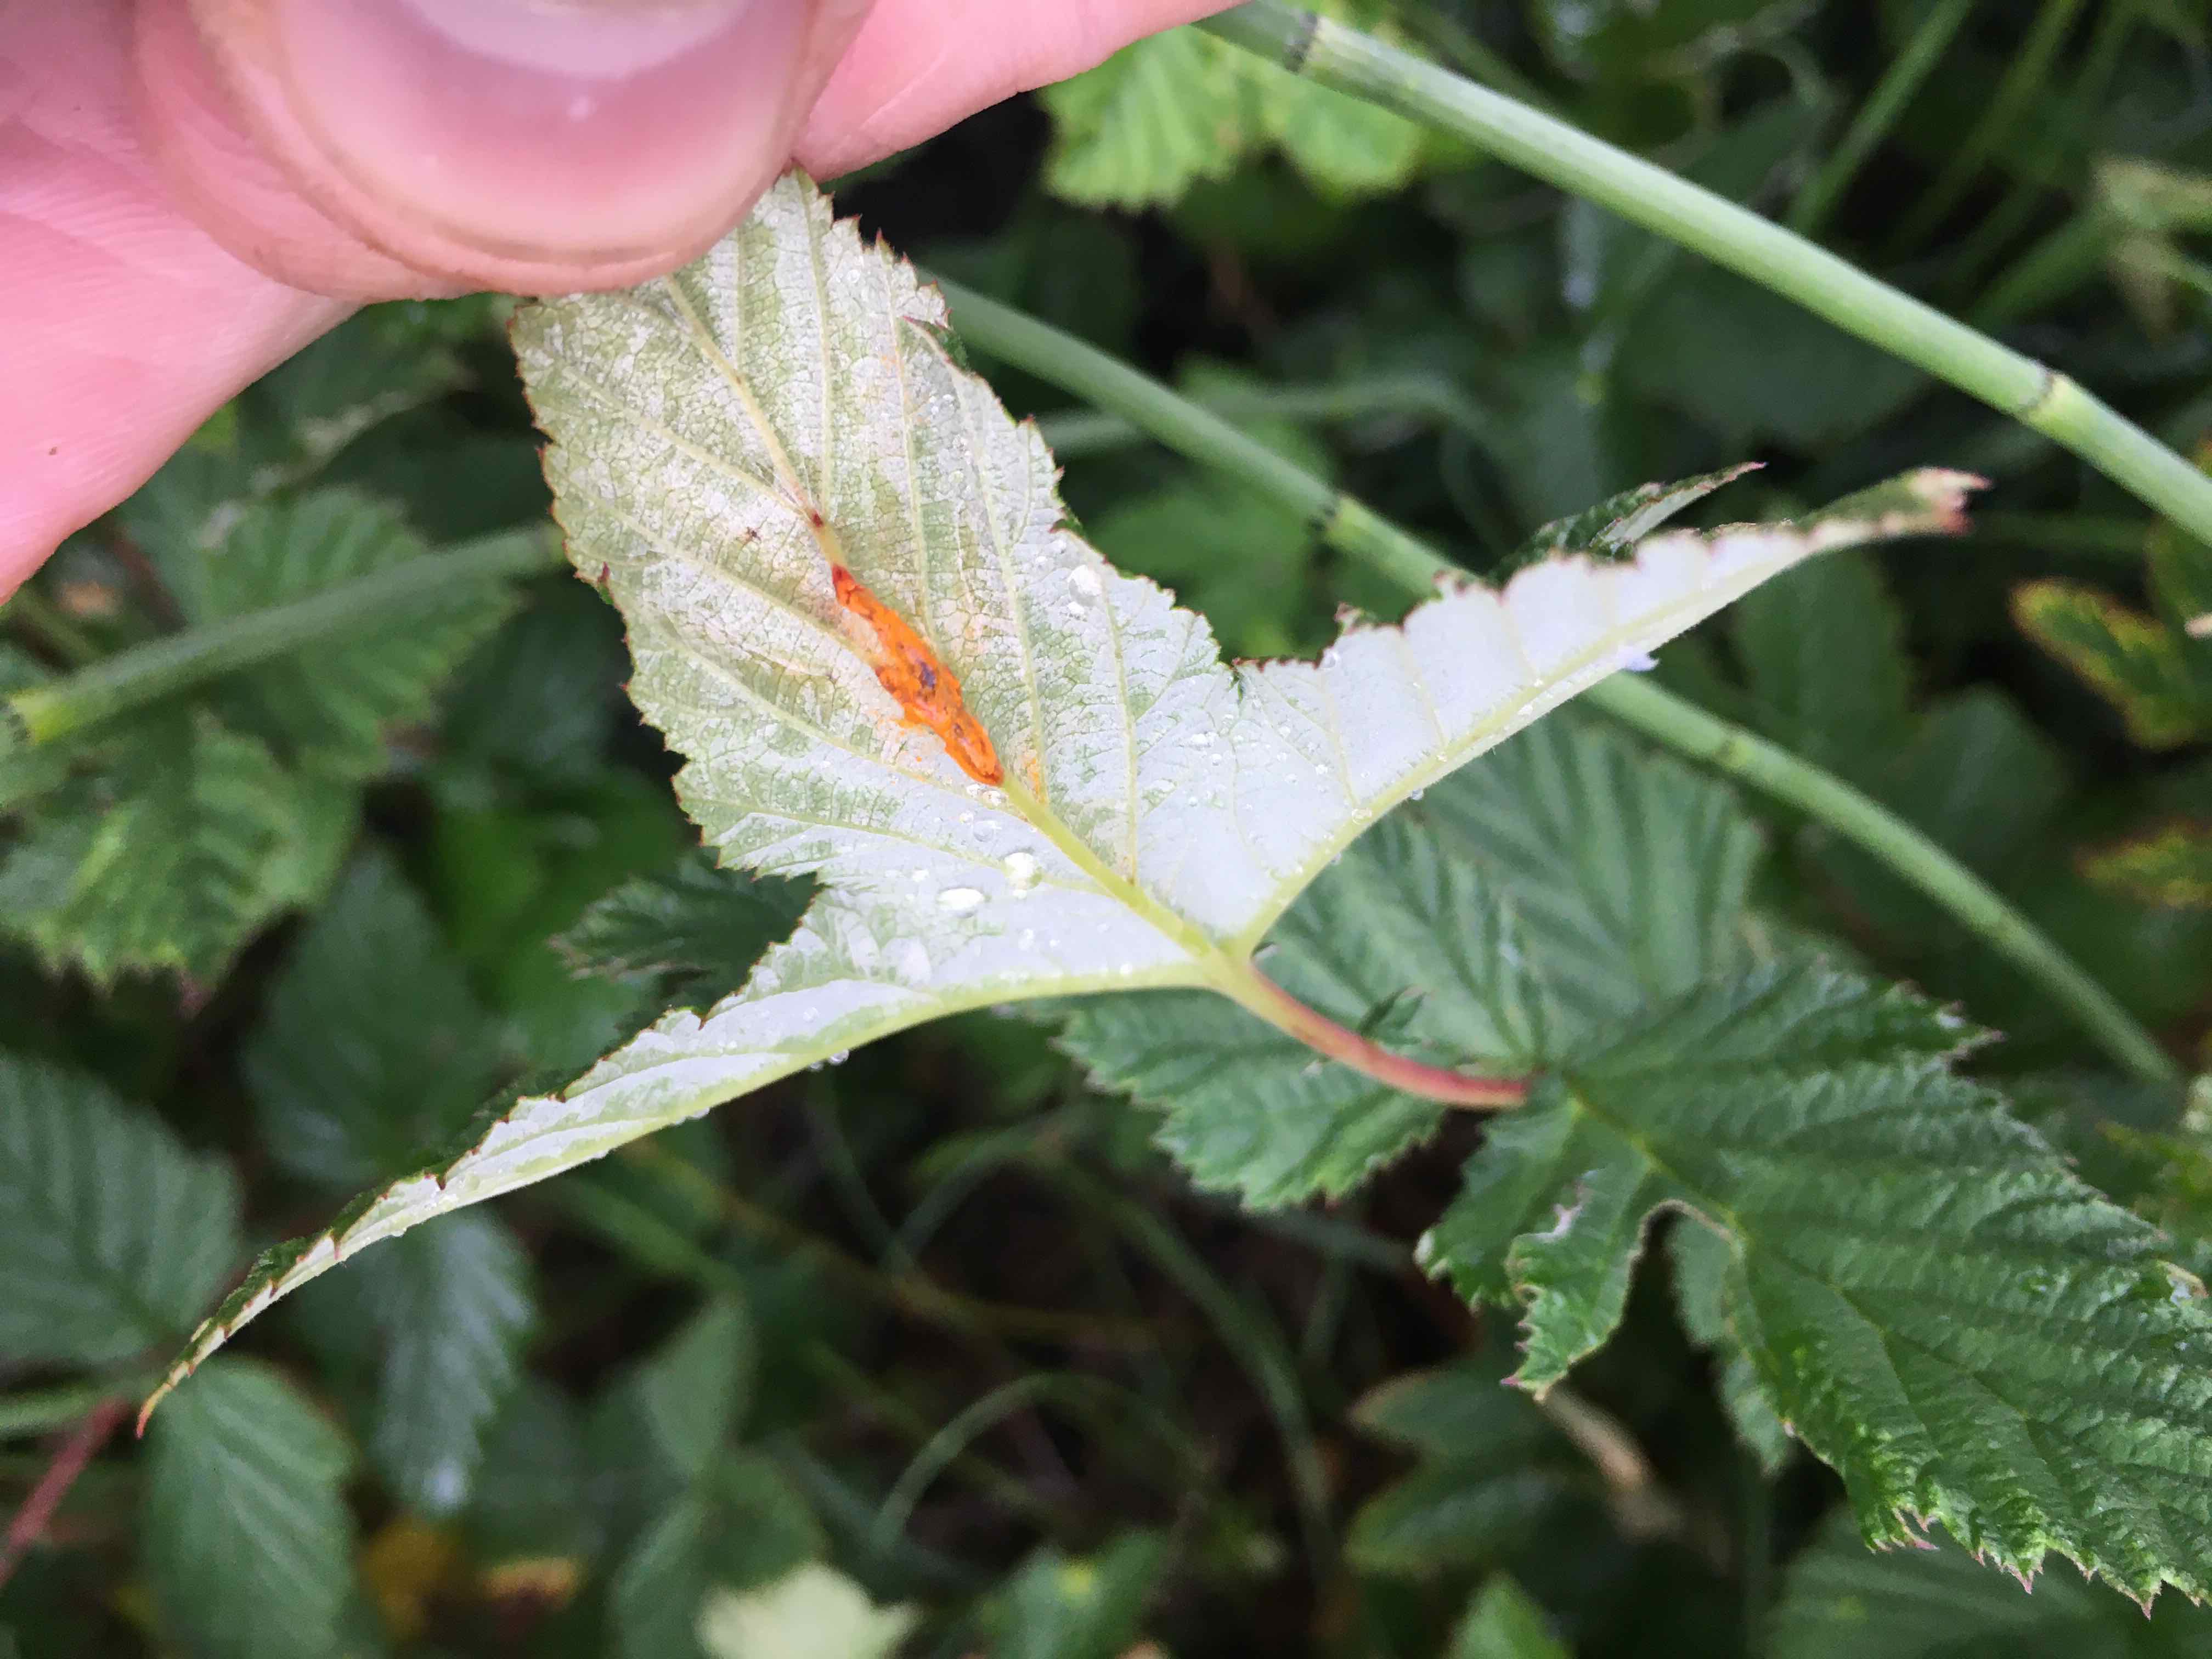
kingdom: Fungi
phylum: Basidiomycota
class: Pucciniomycetes
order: Pucciniales
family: Raveneliaceae
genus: Triphragmium
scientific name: Triphragmium ulmariae
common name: almindelig mjødurtrust
